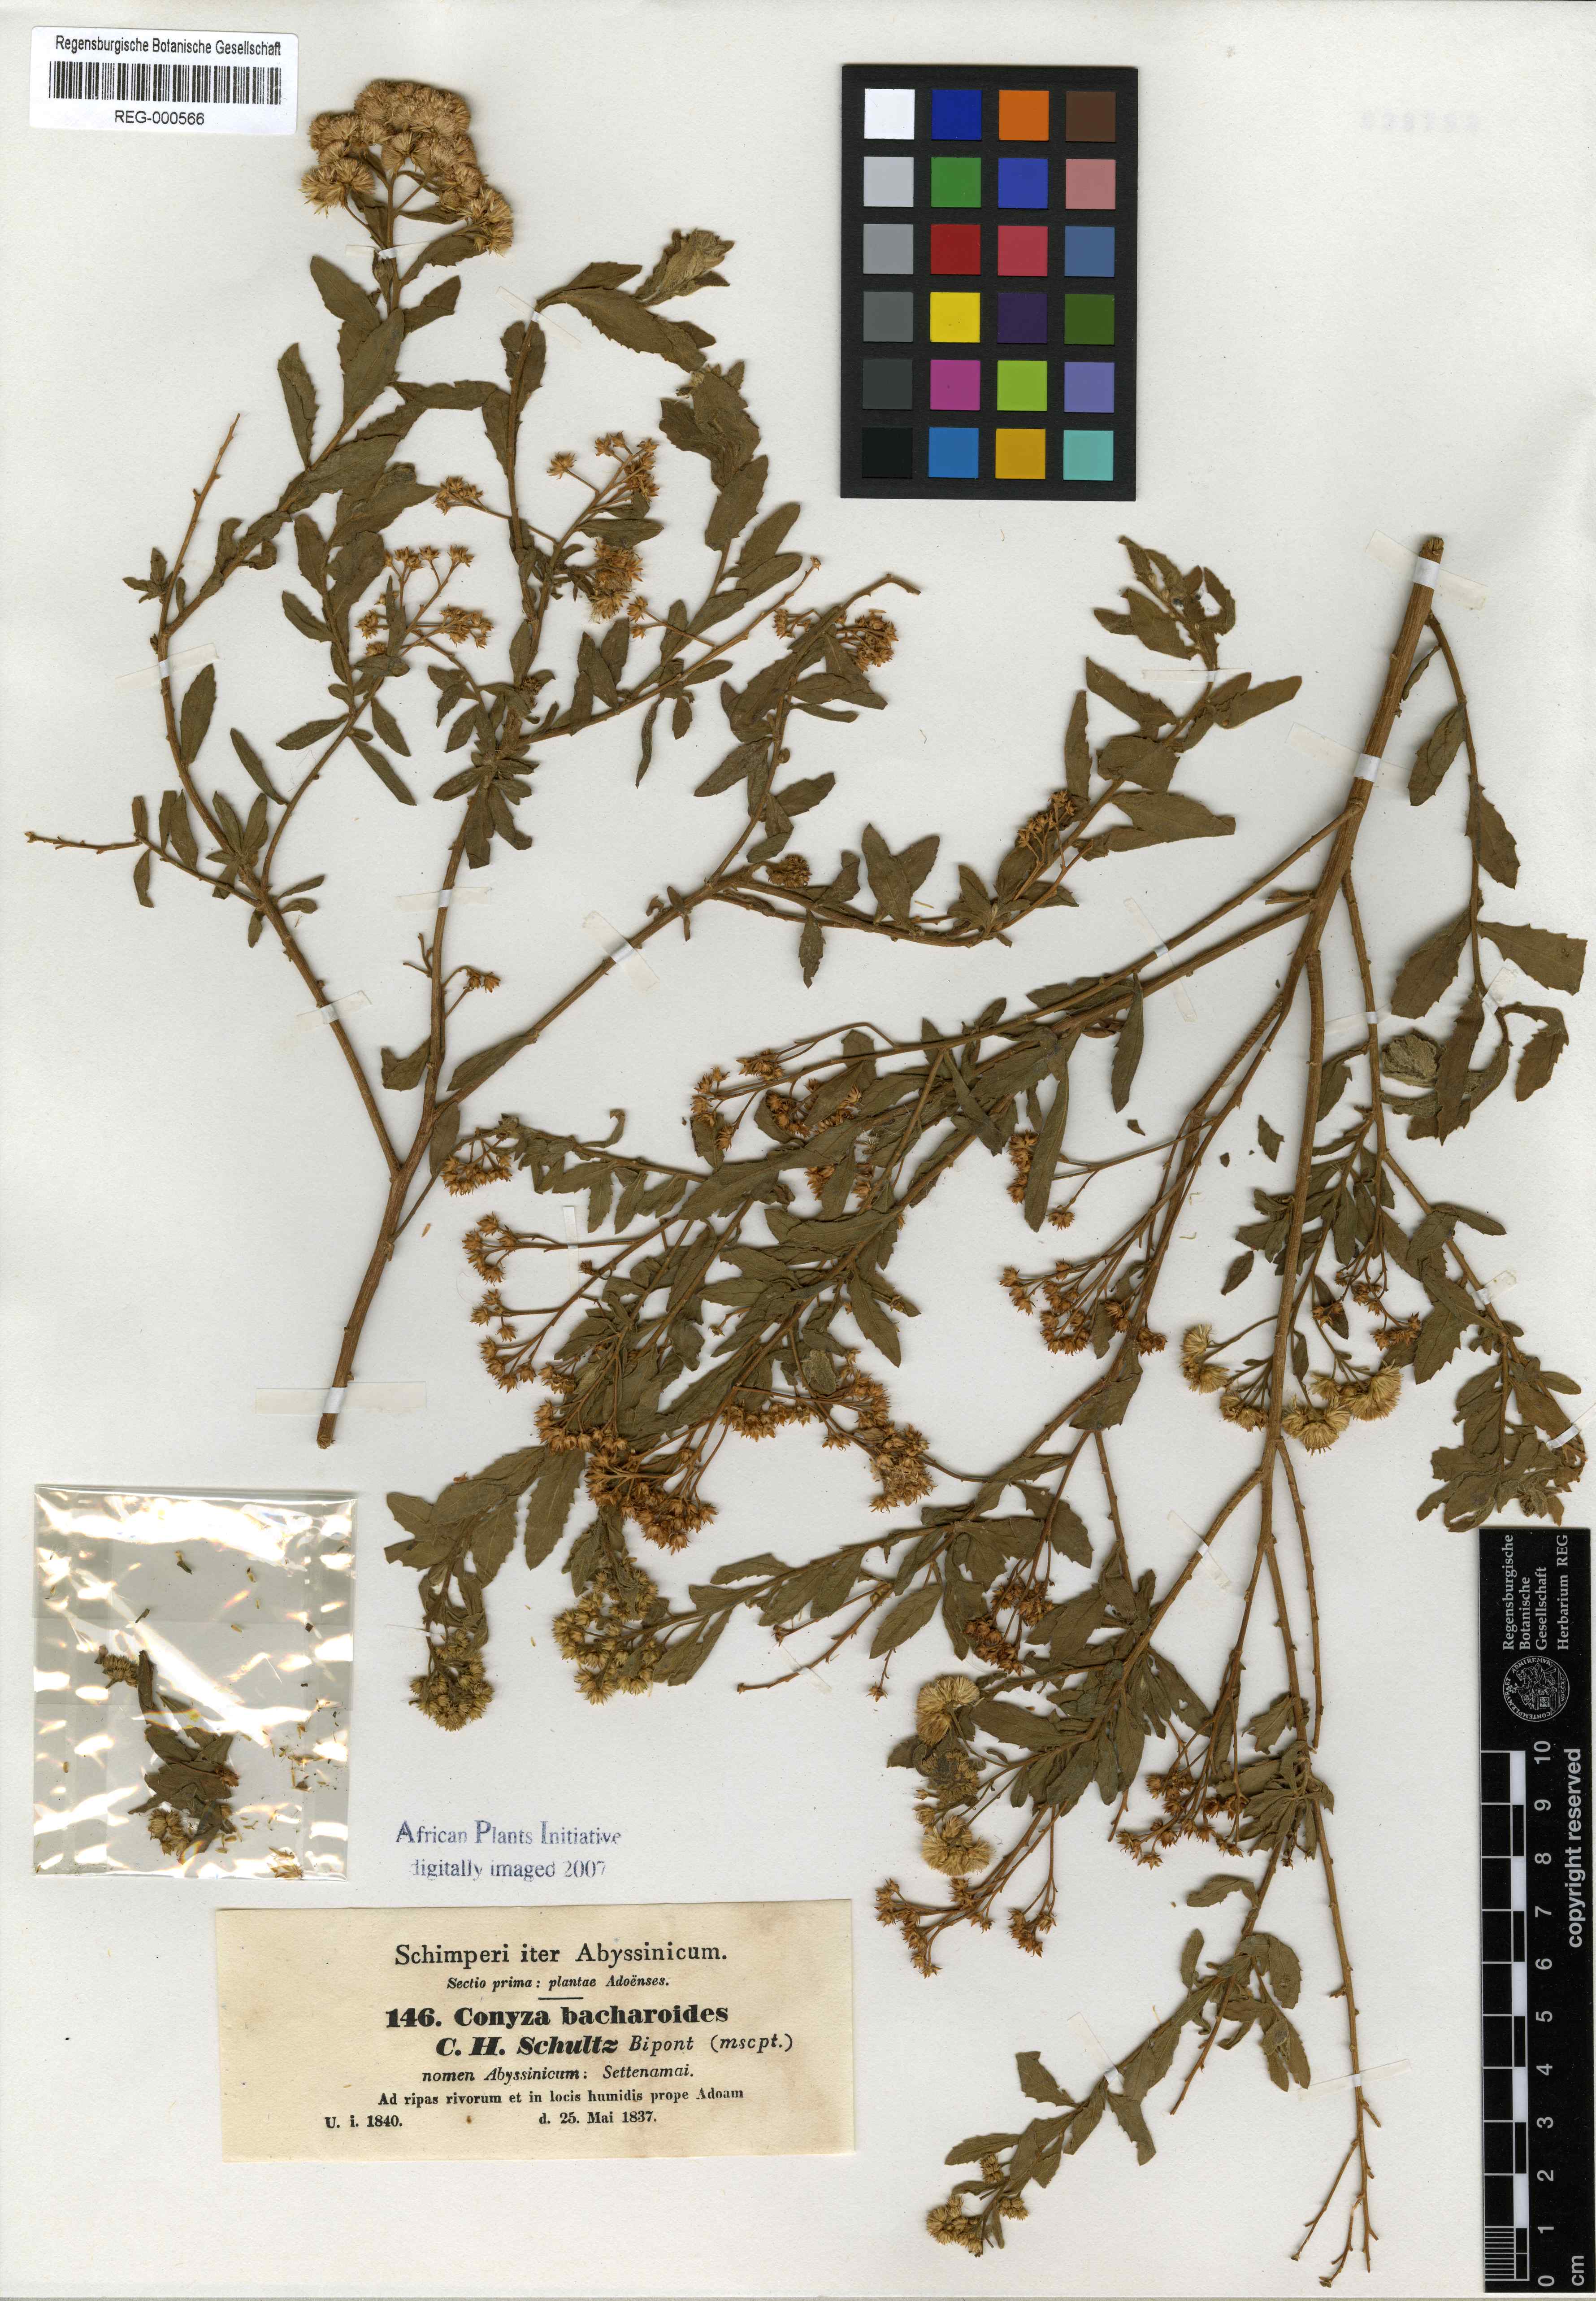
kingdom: Plantae
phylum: Tracheophyta
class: Magnoliopsida
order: Asterales
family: Asteraceae
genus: Pluchea
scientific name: Pluchea dioscoridis
